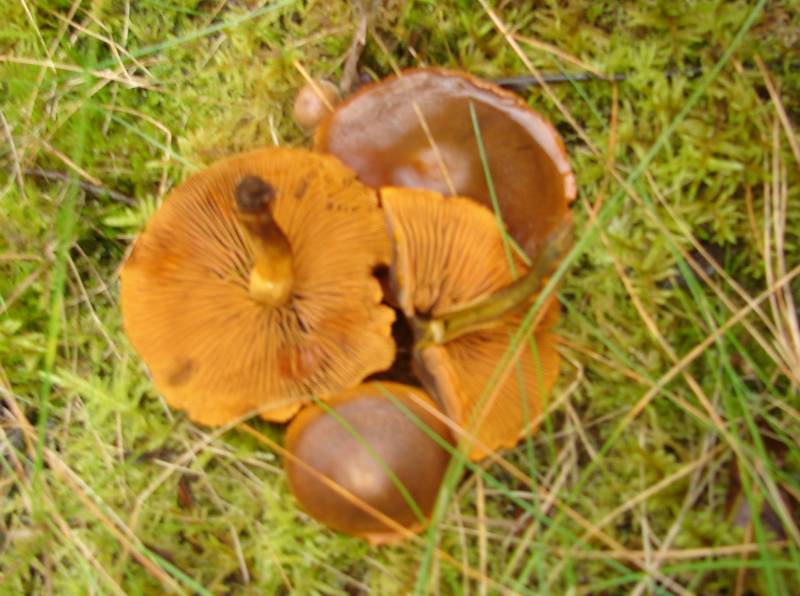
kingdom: Fungi
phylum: Basidiomycota
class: Agaricomycetes
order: Agaricales
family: Cortinariaceae
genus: Cortinarius
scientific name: Cortinarius malicorius
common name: grønkødet slørhat
